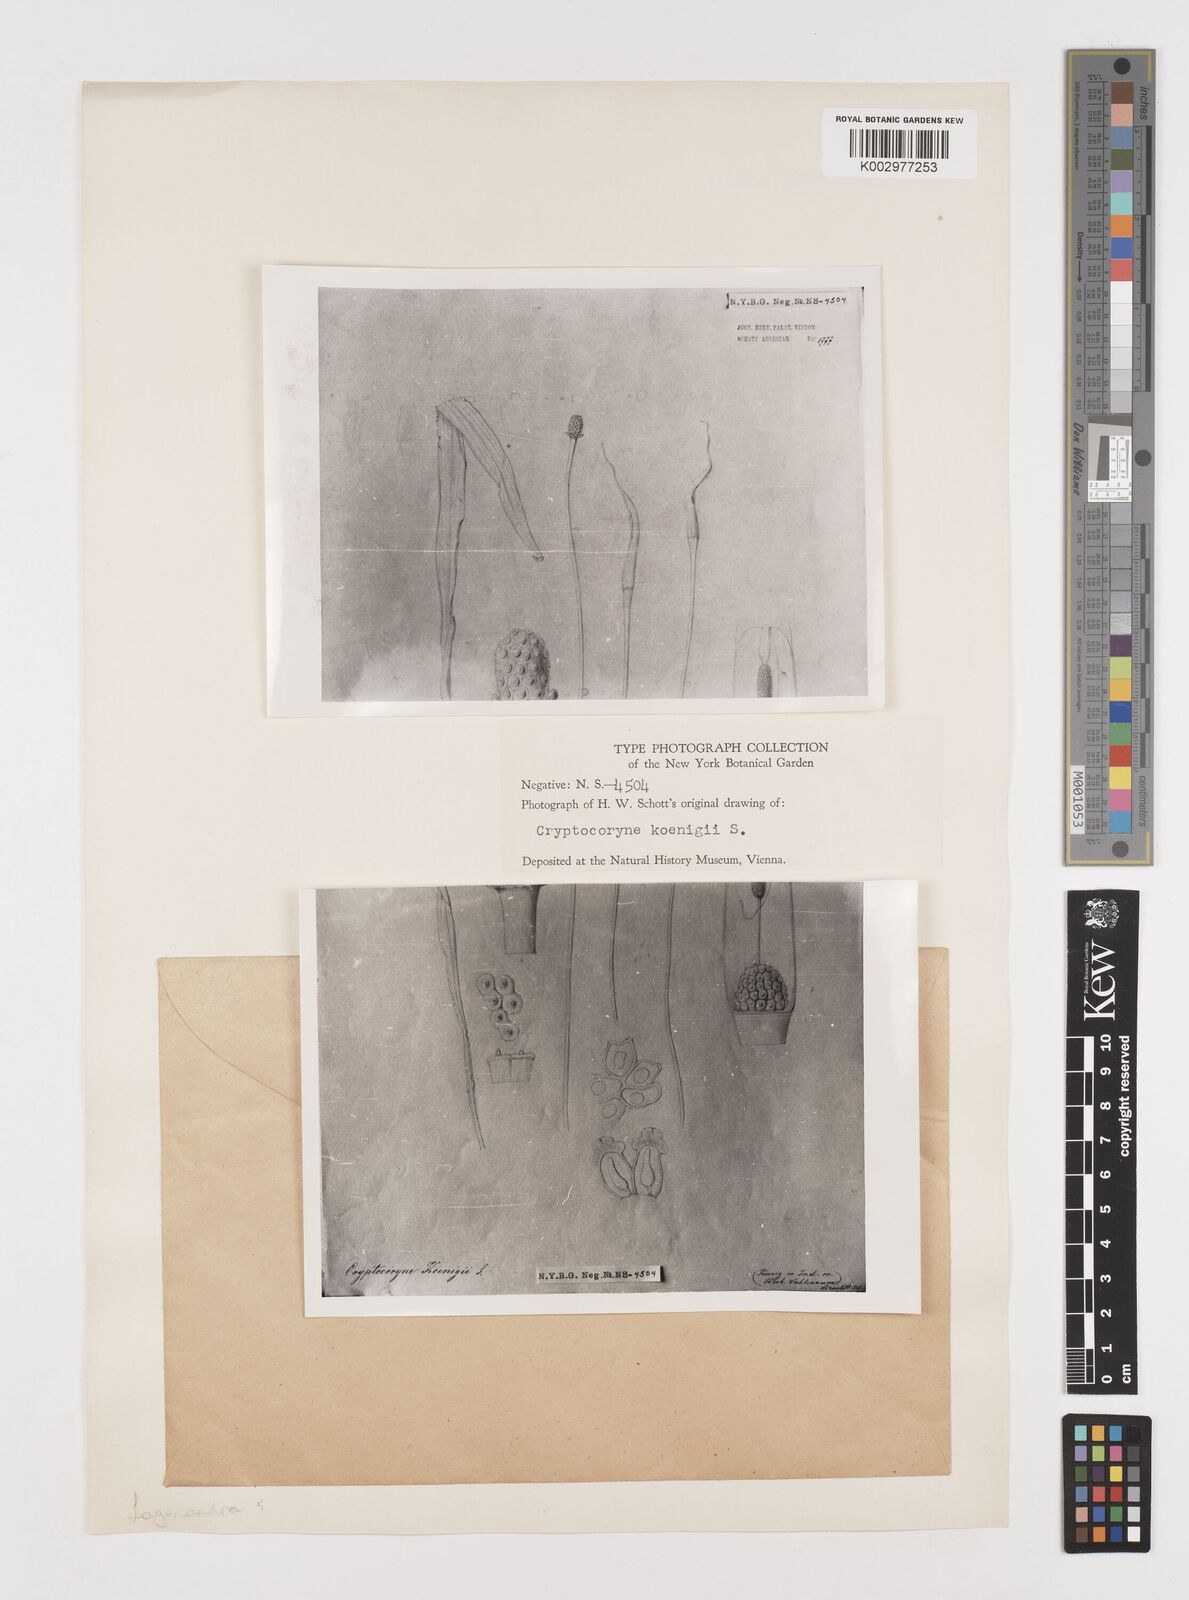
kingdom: Plantae
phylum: Tracheophyta
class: Liliopsida
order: Alismatales
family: Araceae
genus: Lagenandra
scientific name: Lagenandra koenigii
